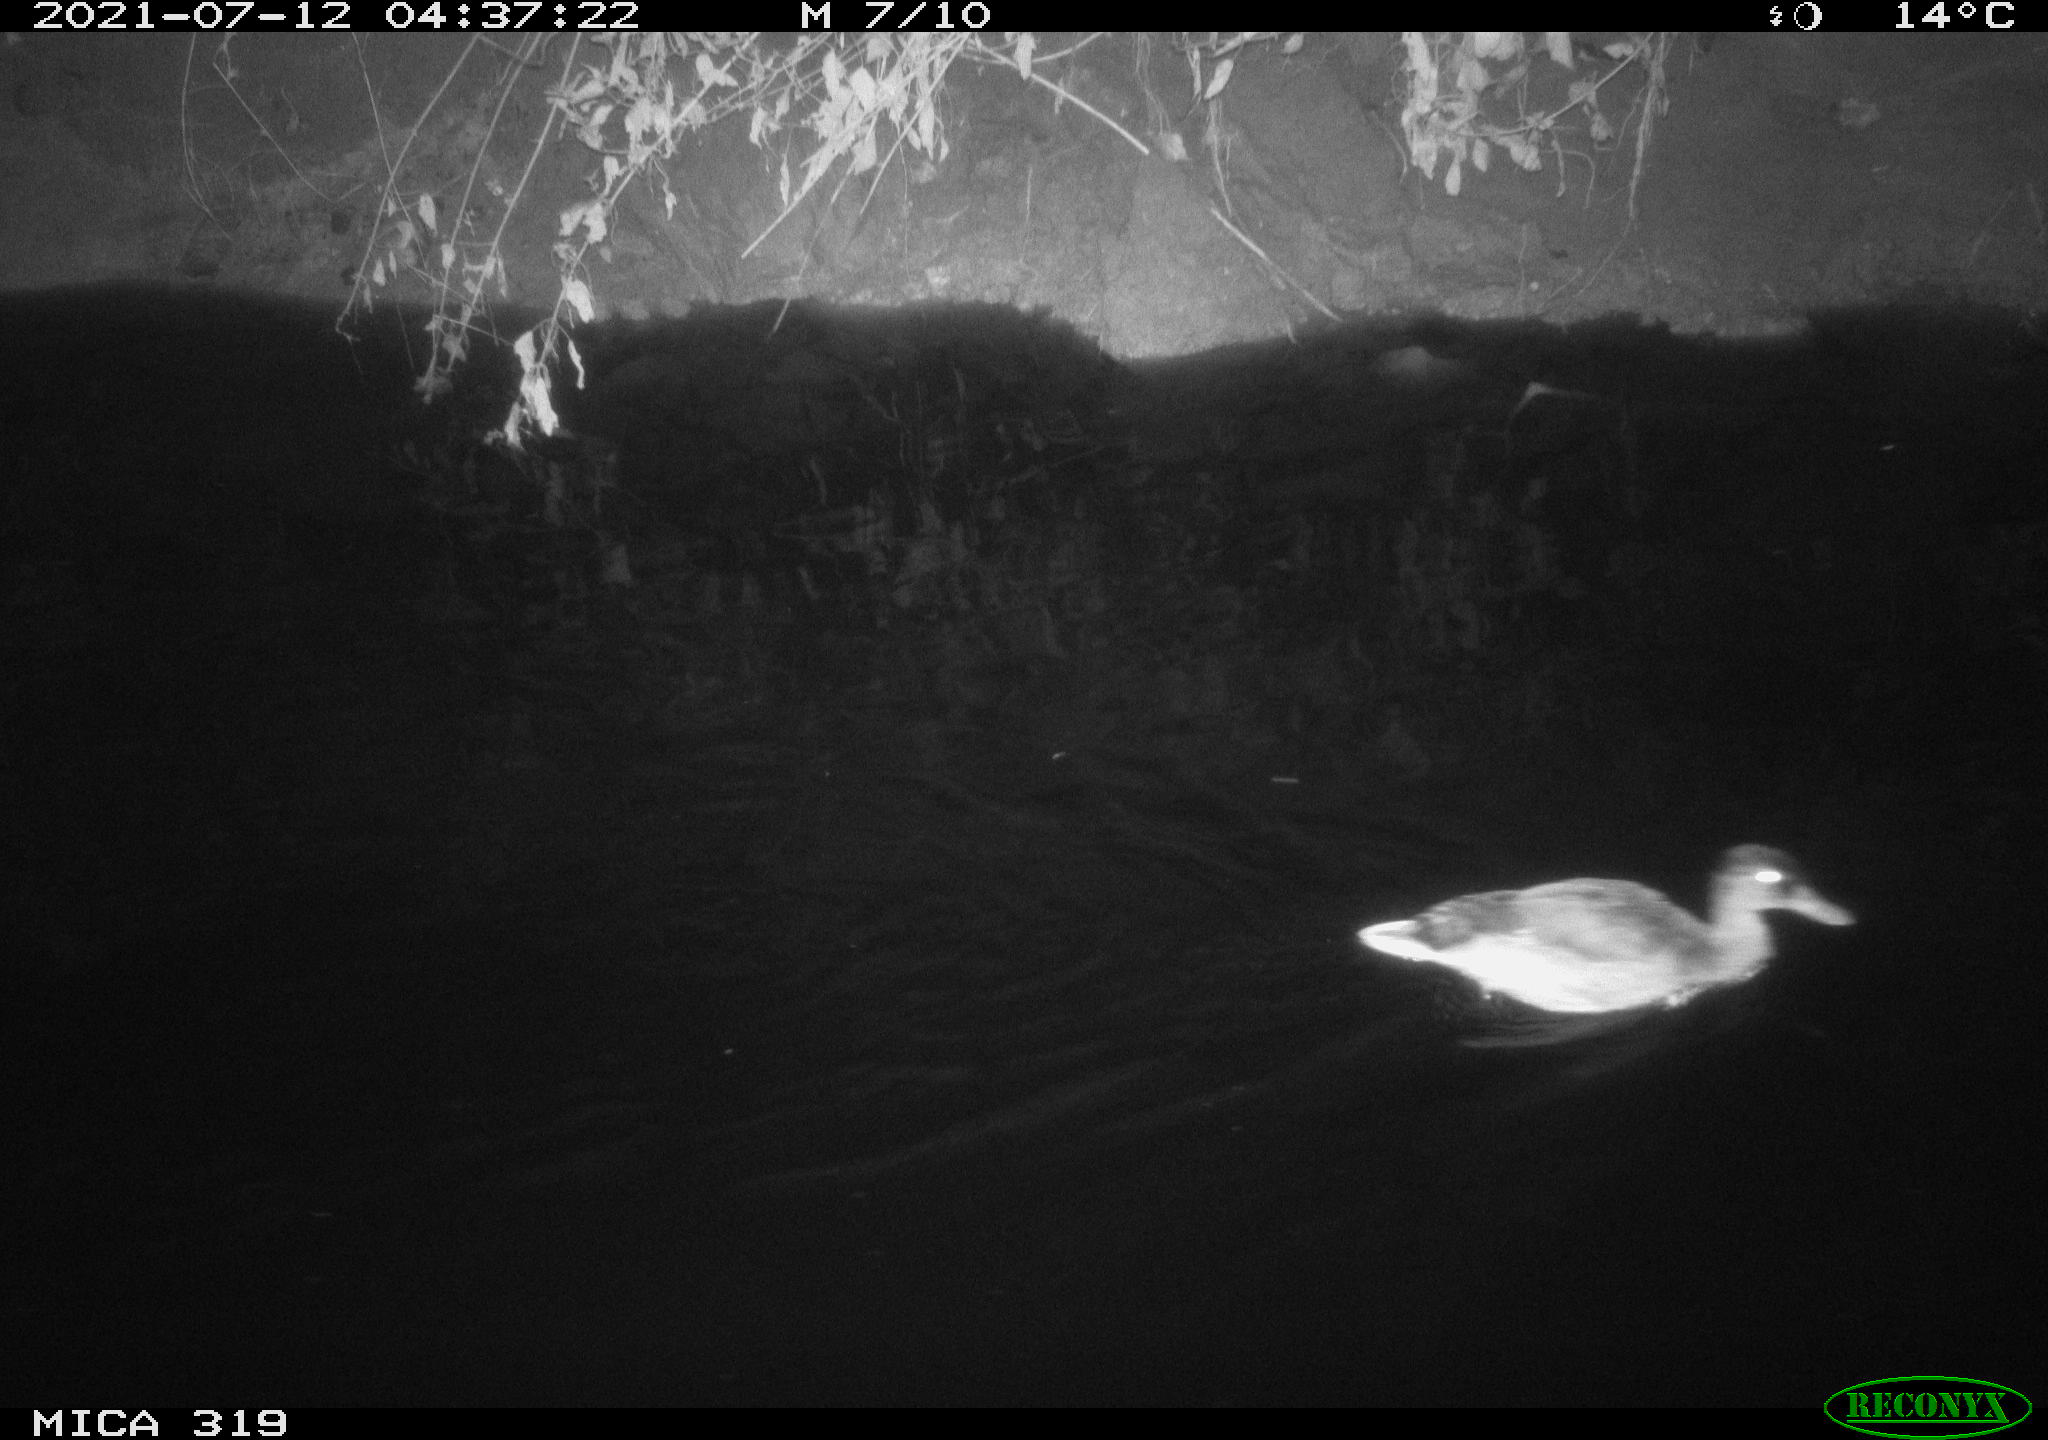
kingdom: Animalia
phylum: Chordata
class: Aves
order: Anseriformes
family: Anatidae
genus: Anas
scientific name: Anas platyrhynchos
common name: Mallard
